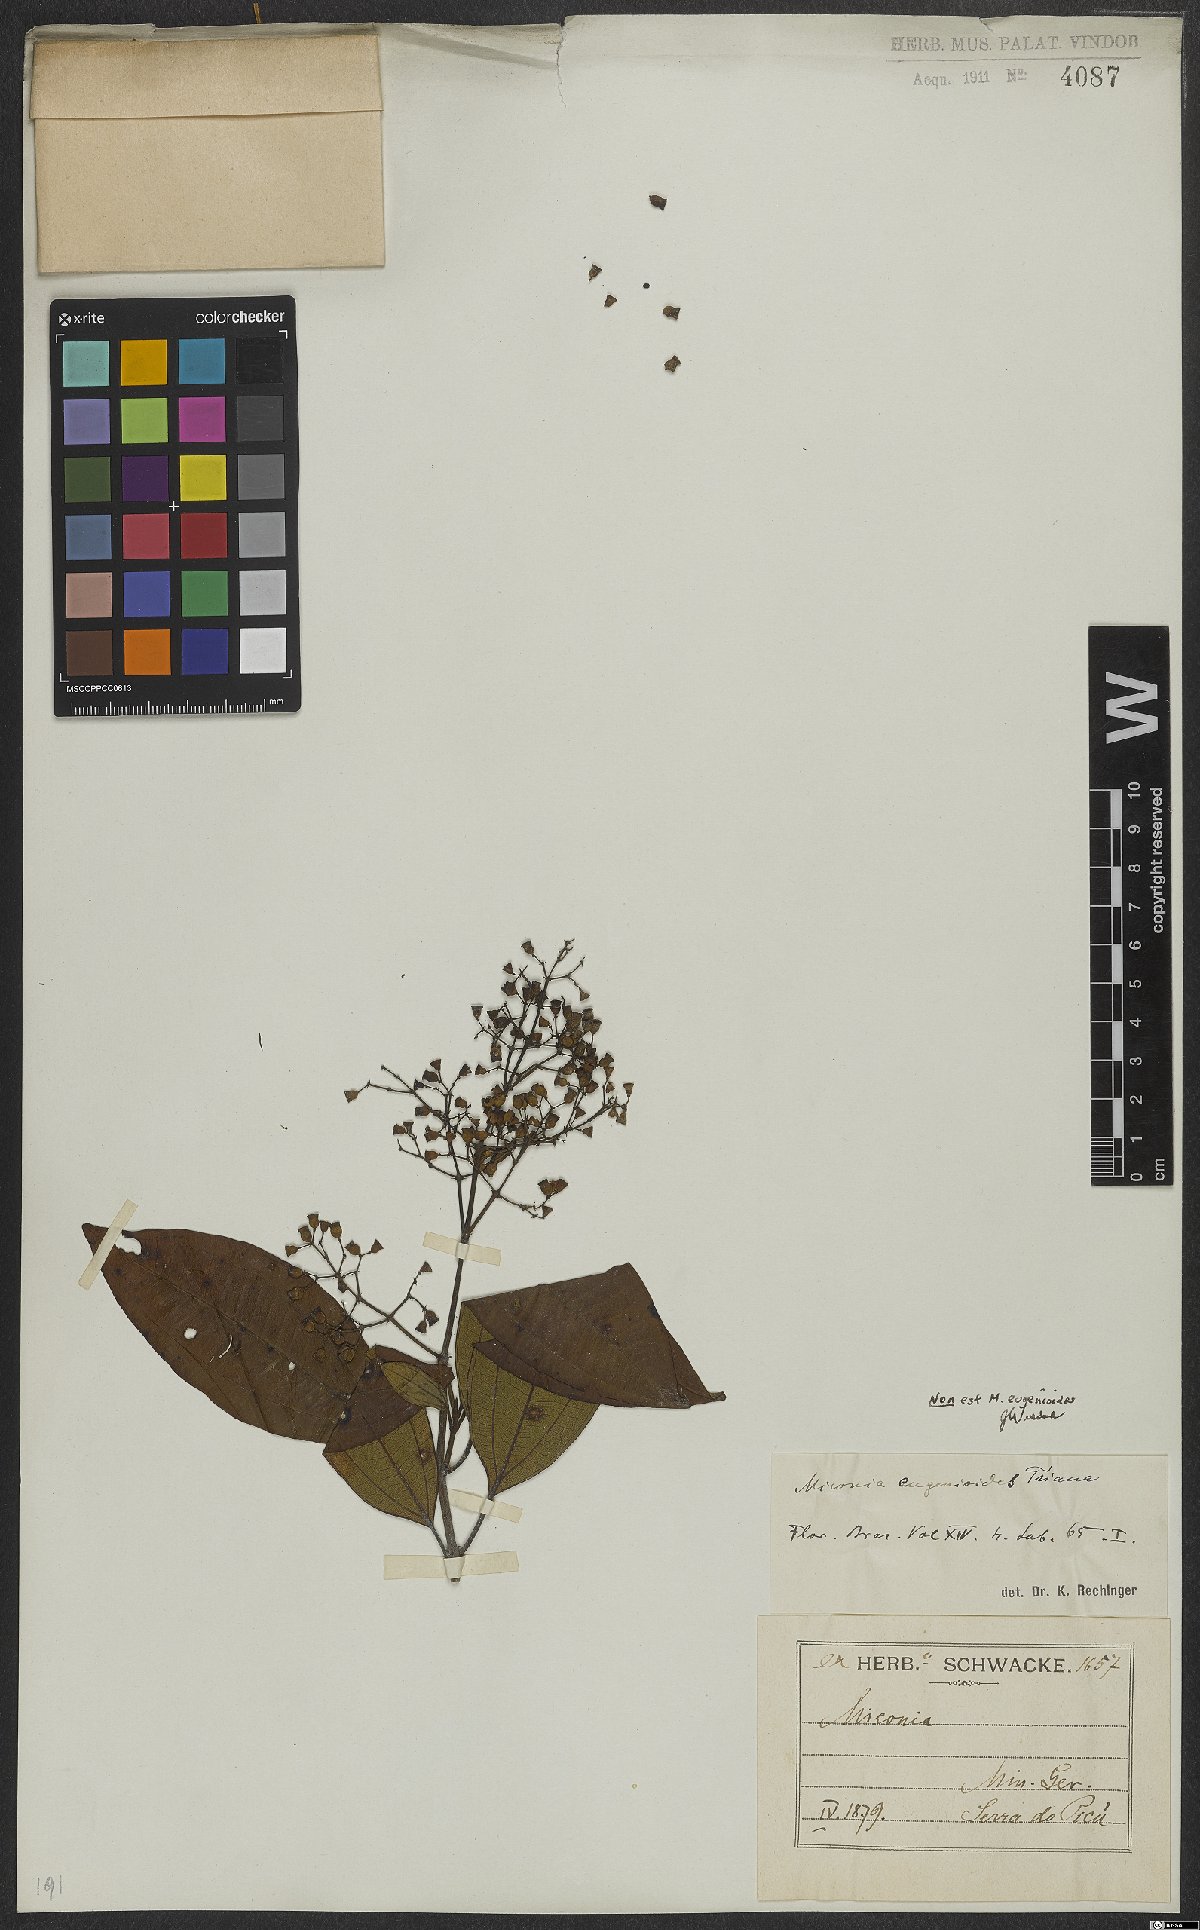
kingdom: Plantae
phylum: Tracheophyta
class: Magnoliopsida
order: Myrtales
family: Melastomataceae
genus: Miconia
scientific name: Miconia eugenioides
